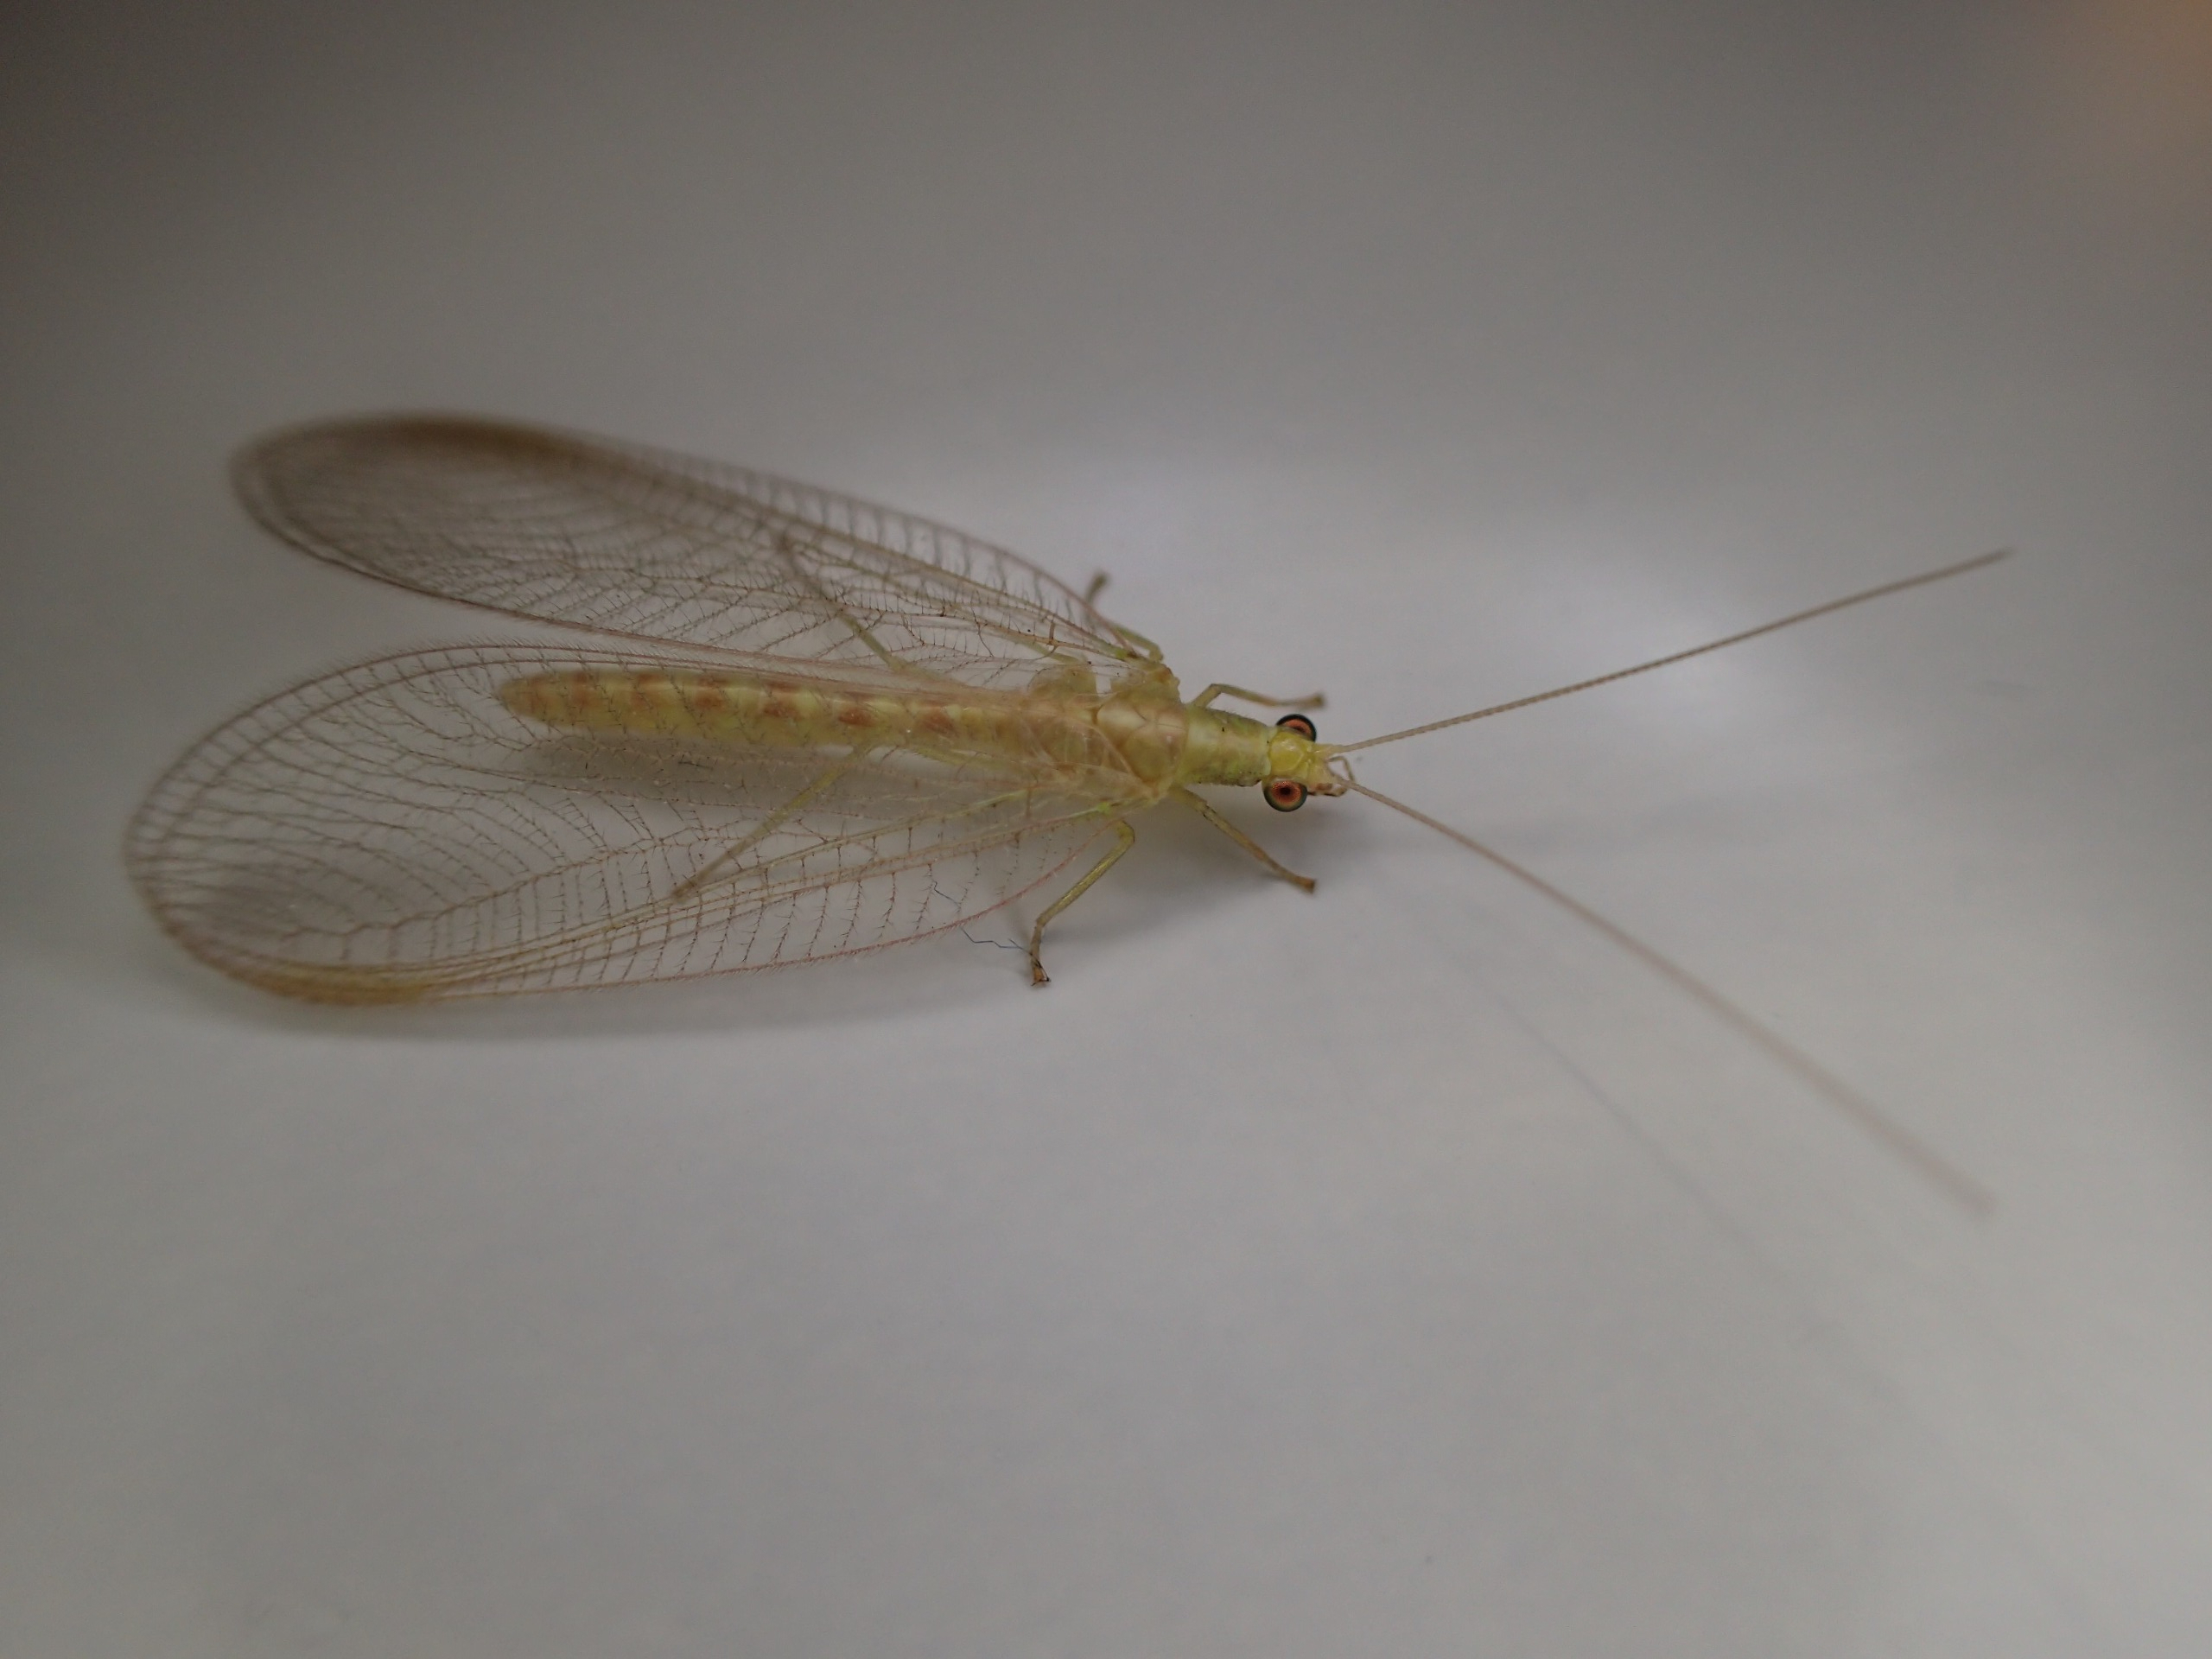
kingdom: Animalia
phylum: Arthropoda
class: Insecta
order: Neuroptera
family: Chrysopidae
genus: Chrysoperla
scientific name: Chrysoperla carnea
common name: Almindelig guldøje
